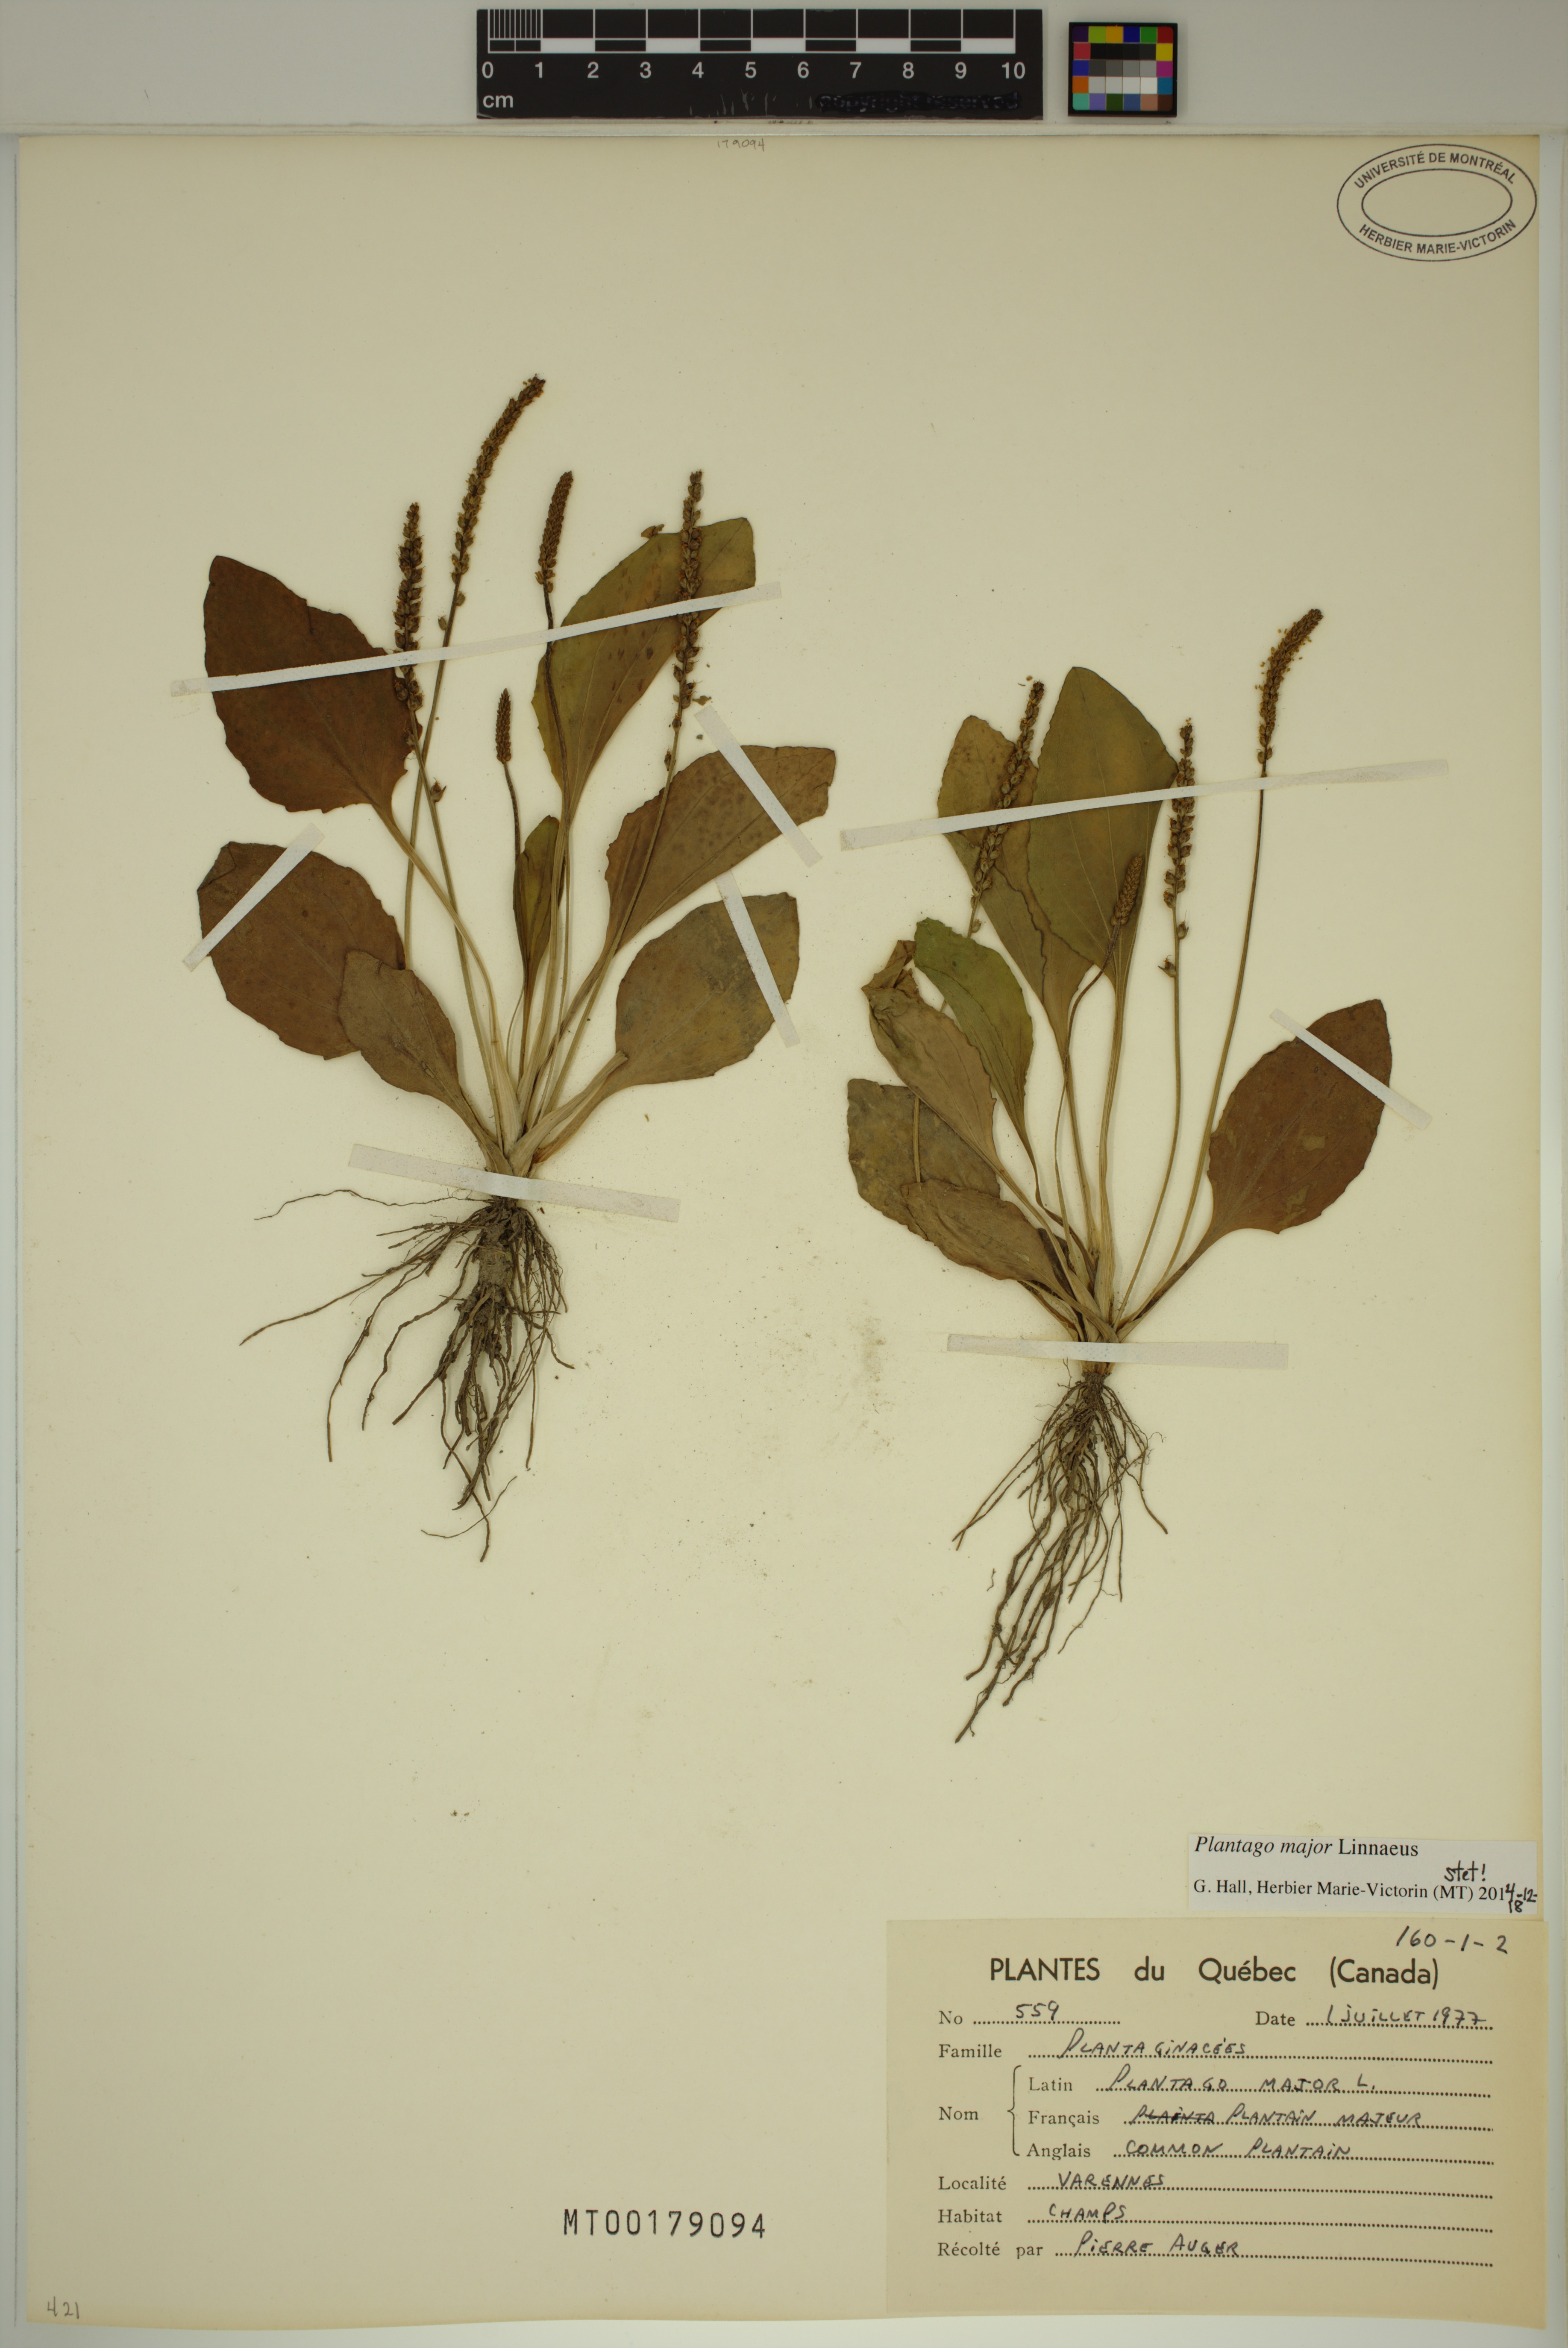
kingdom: Plantae
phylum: Tracheophyta
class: Magnoliopsida
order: Lamiales
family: Plantaginaceae
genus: Plantago
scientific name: Plantago major
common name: Common plantain
